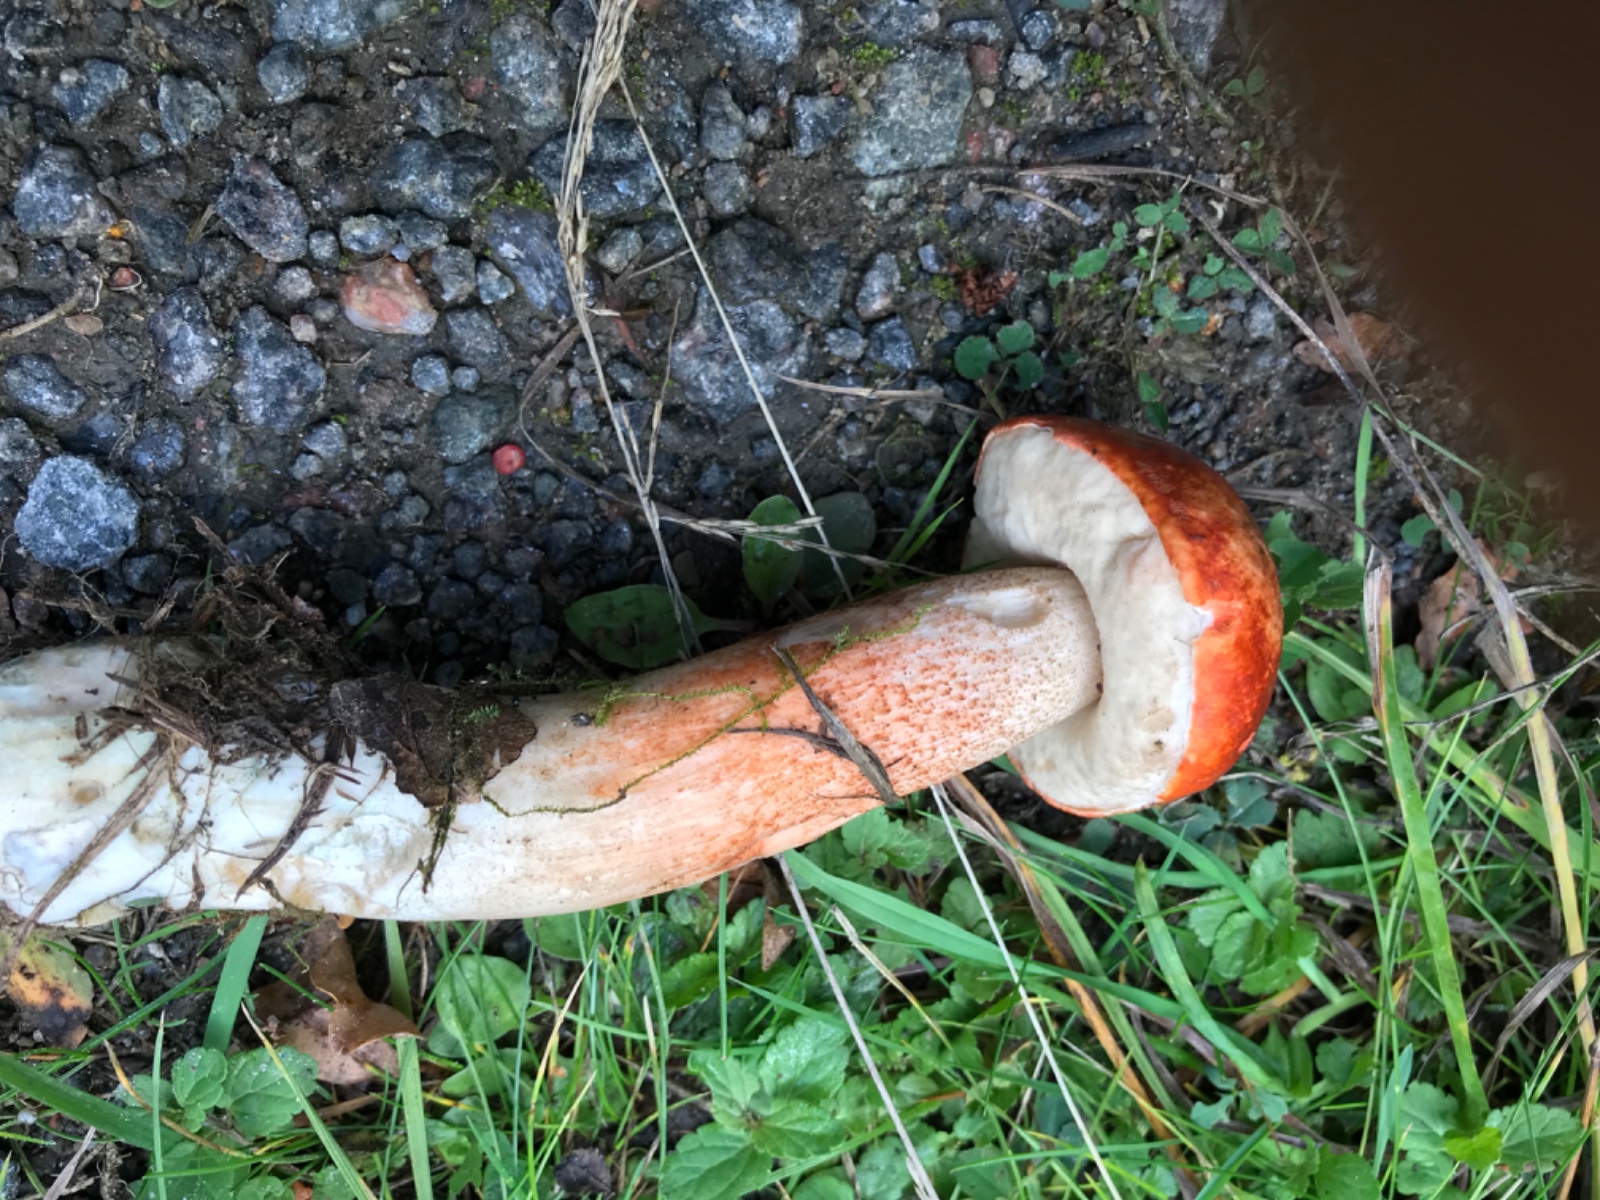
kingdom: Fungi
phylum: Basidiomycota
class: Agaricomycetes
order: Boletales
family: Boletaceae
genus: Leccinum
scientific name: Leccinum aurantiacum
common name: rustrød skælrørhat
